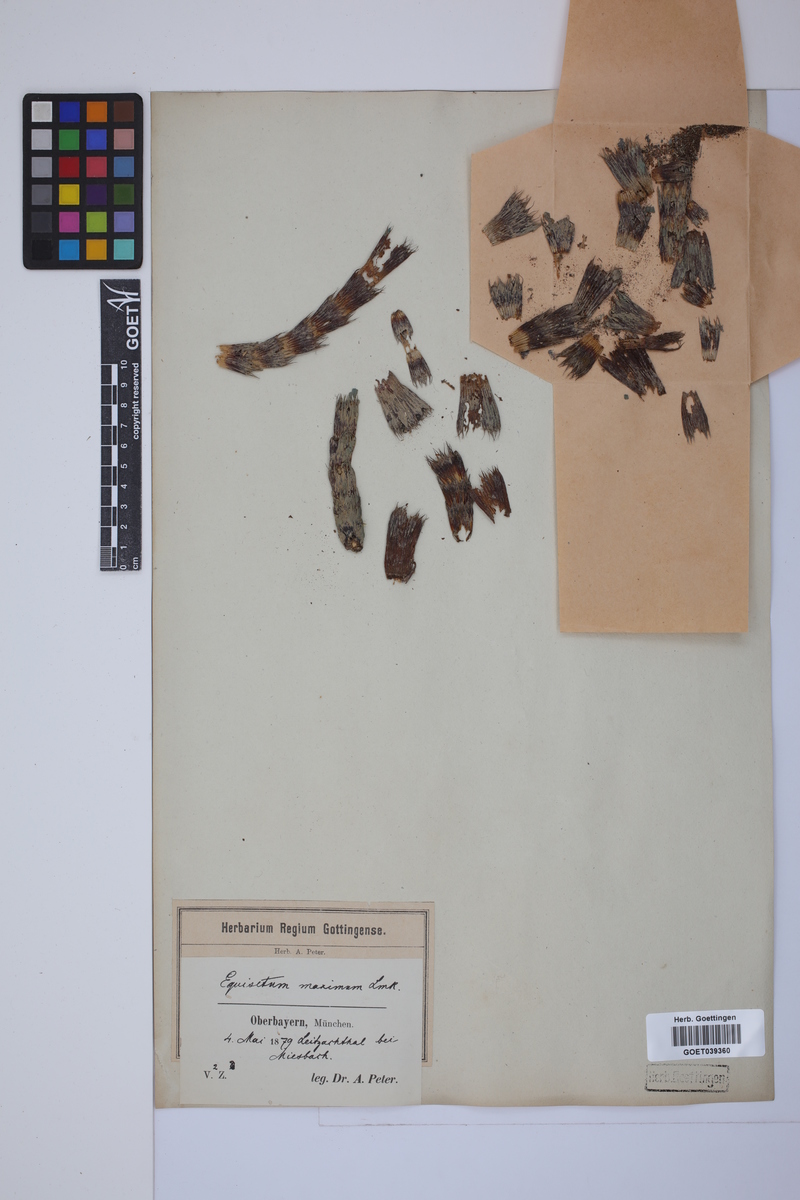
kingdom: Plantae
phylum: Tracheophyta
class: Polypodiopsida
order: Equisetales
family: Equisetaceae
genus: Equisetum
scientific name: Equisetum telmateia
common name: Great horsetail
